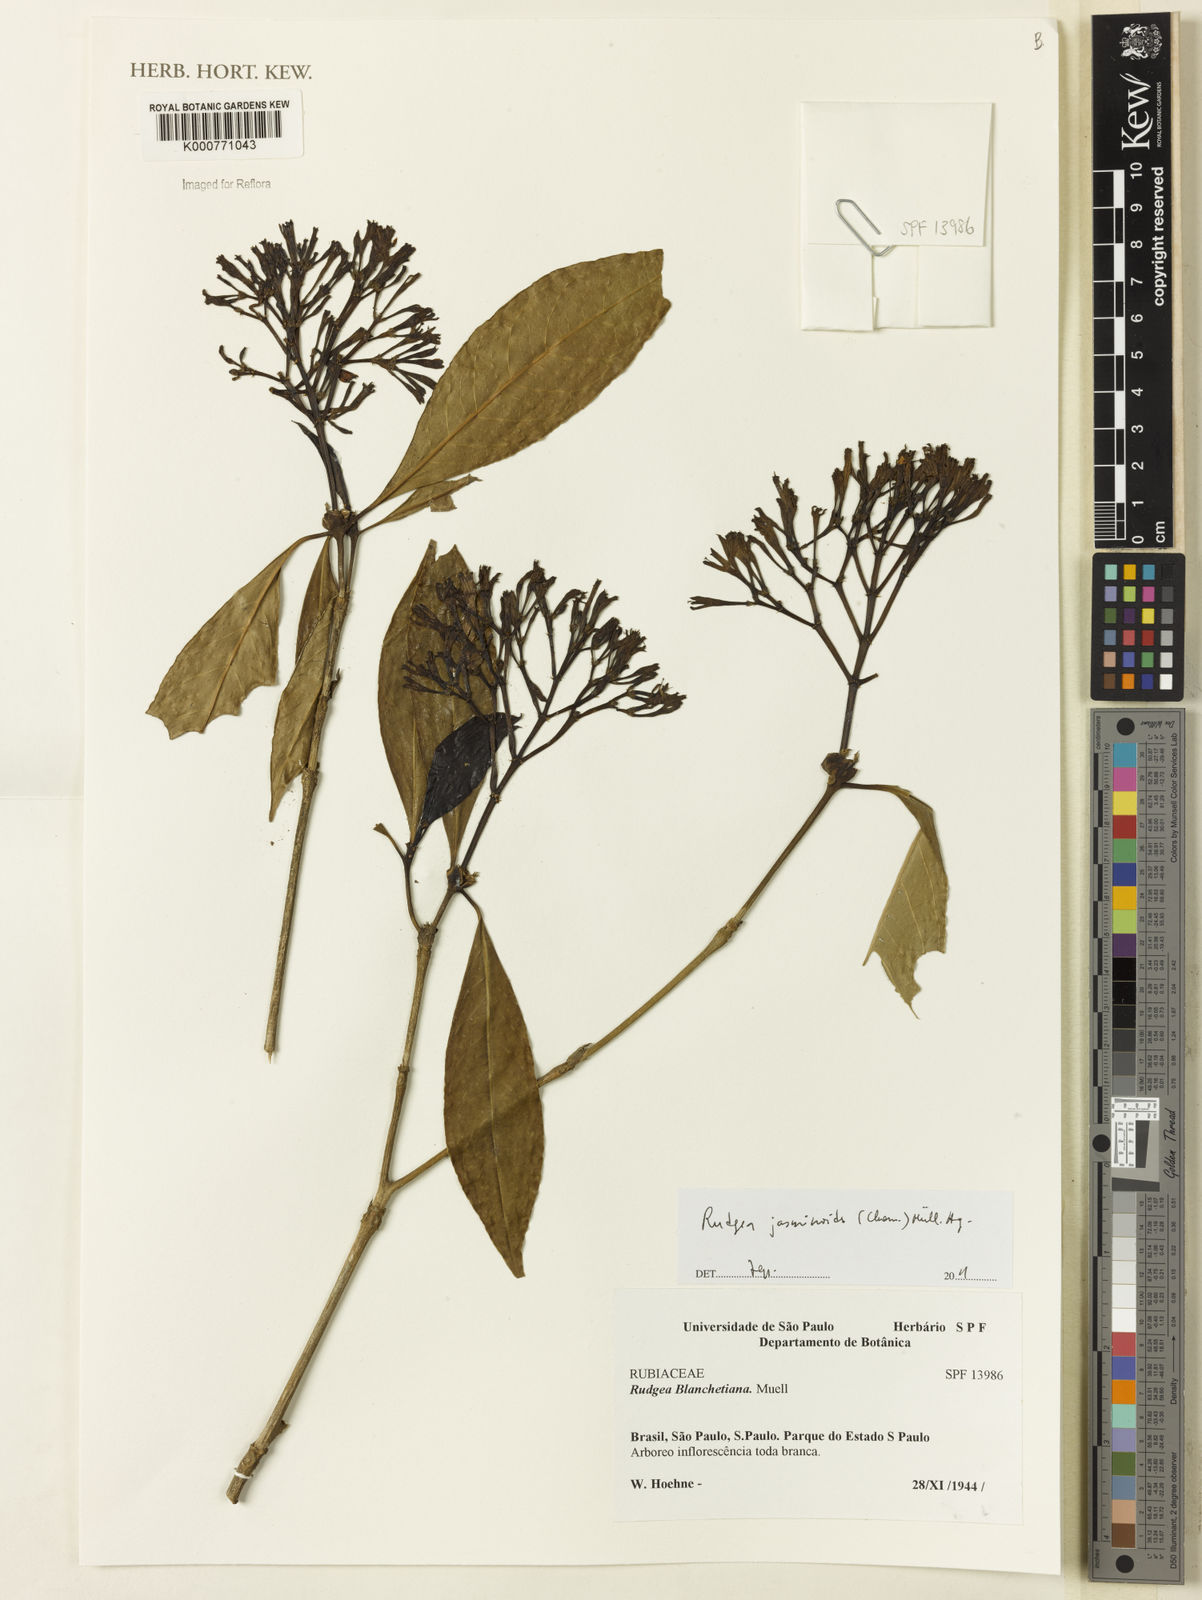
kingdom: Plantae
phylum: Tracheophyta
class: Magnoliopsida
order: Gentianales
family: Rubiaceae
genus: Rudgea
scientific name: Rudgea
